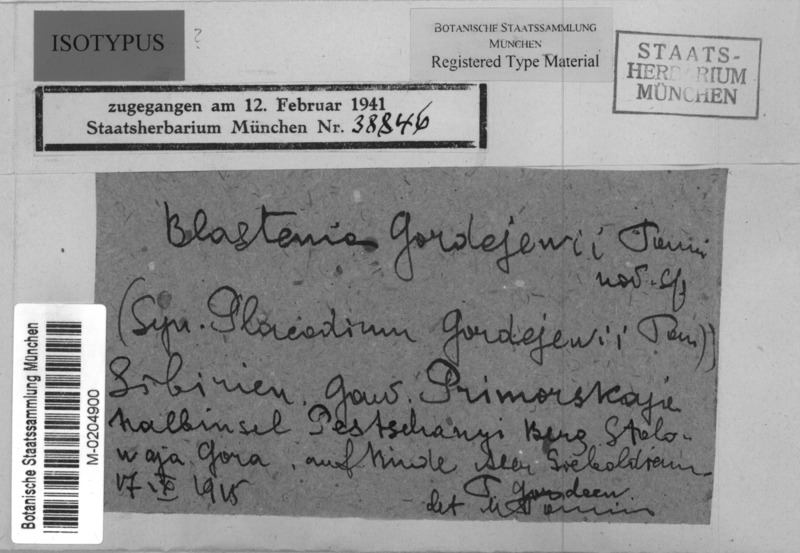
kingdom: Fungi
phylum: Ascomycota
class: Lecanoromycetes
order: Teloschistales
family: Teloschistaceae
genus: Mikhtomia
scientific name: Mikhtomia gordejevii
